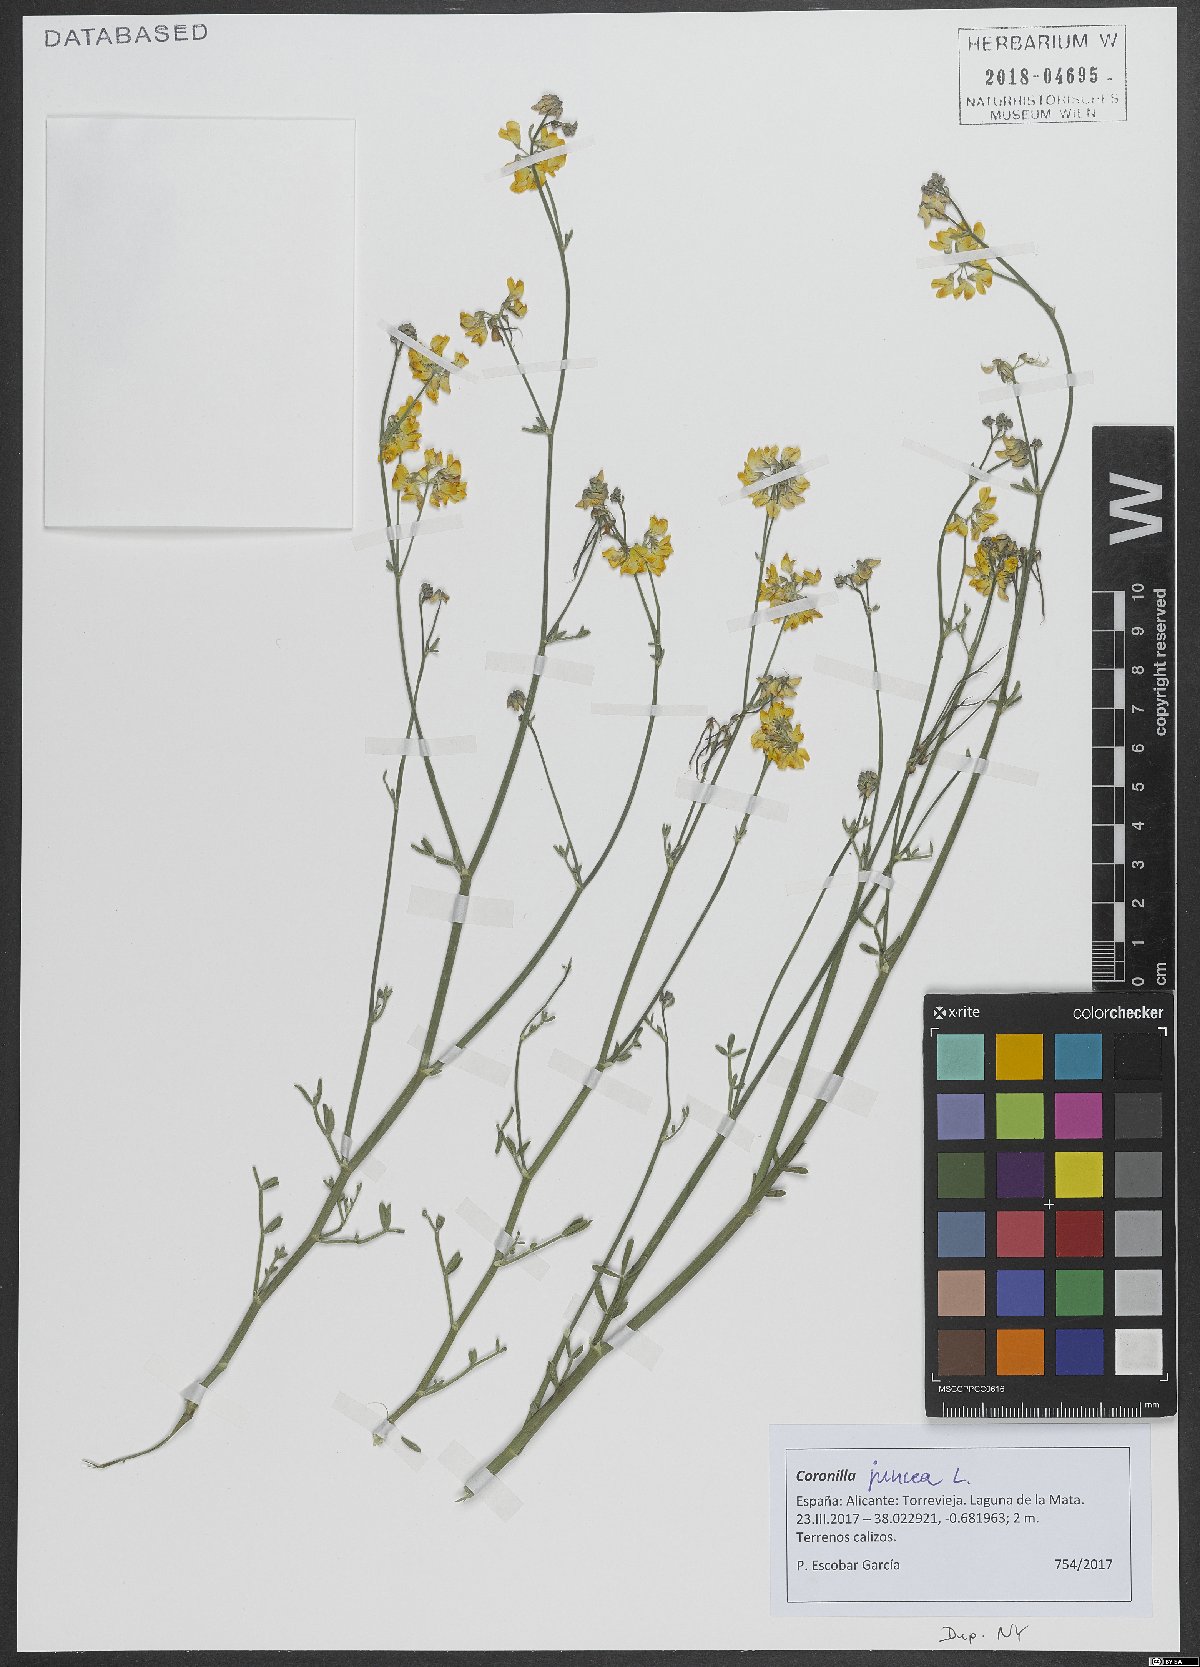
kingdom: Plantae
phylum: Tracheophyta
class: Magnoliopsida
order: Fabales
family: Fabaceae
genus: Coronilla
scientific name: Coronilla juncea
